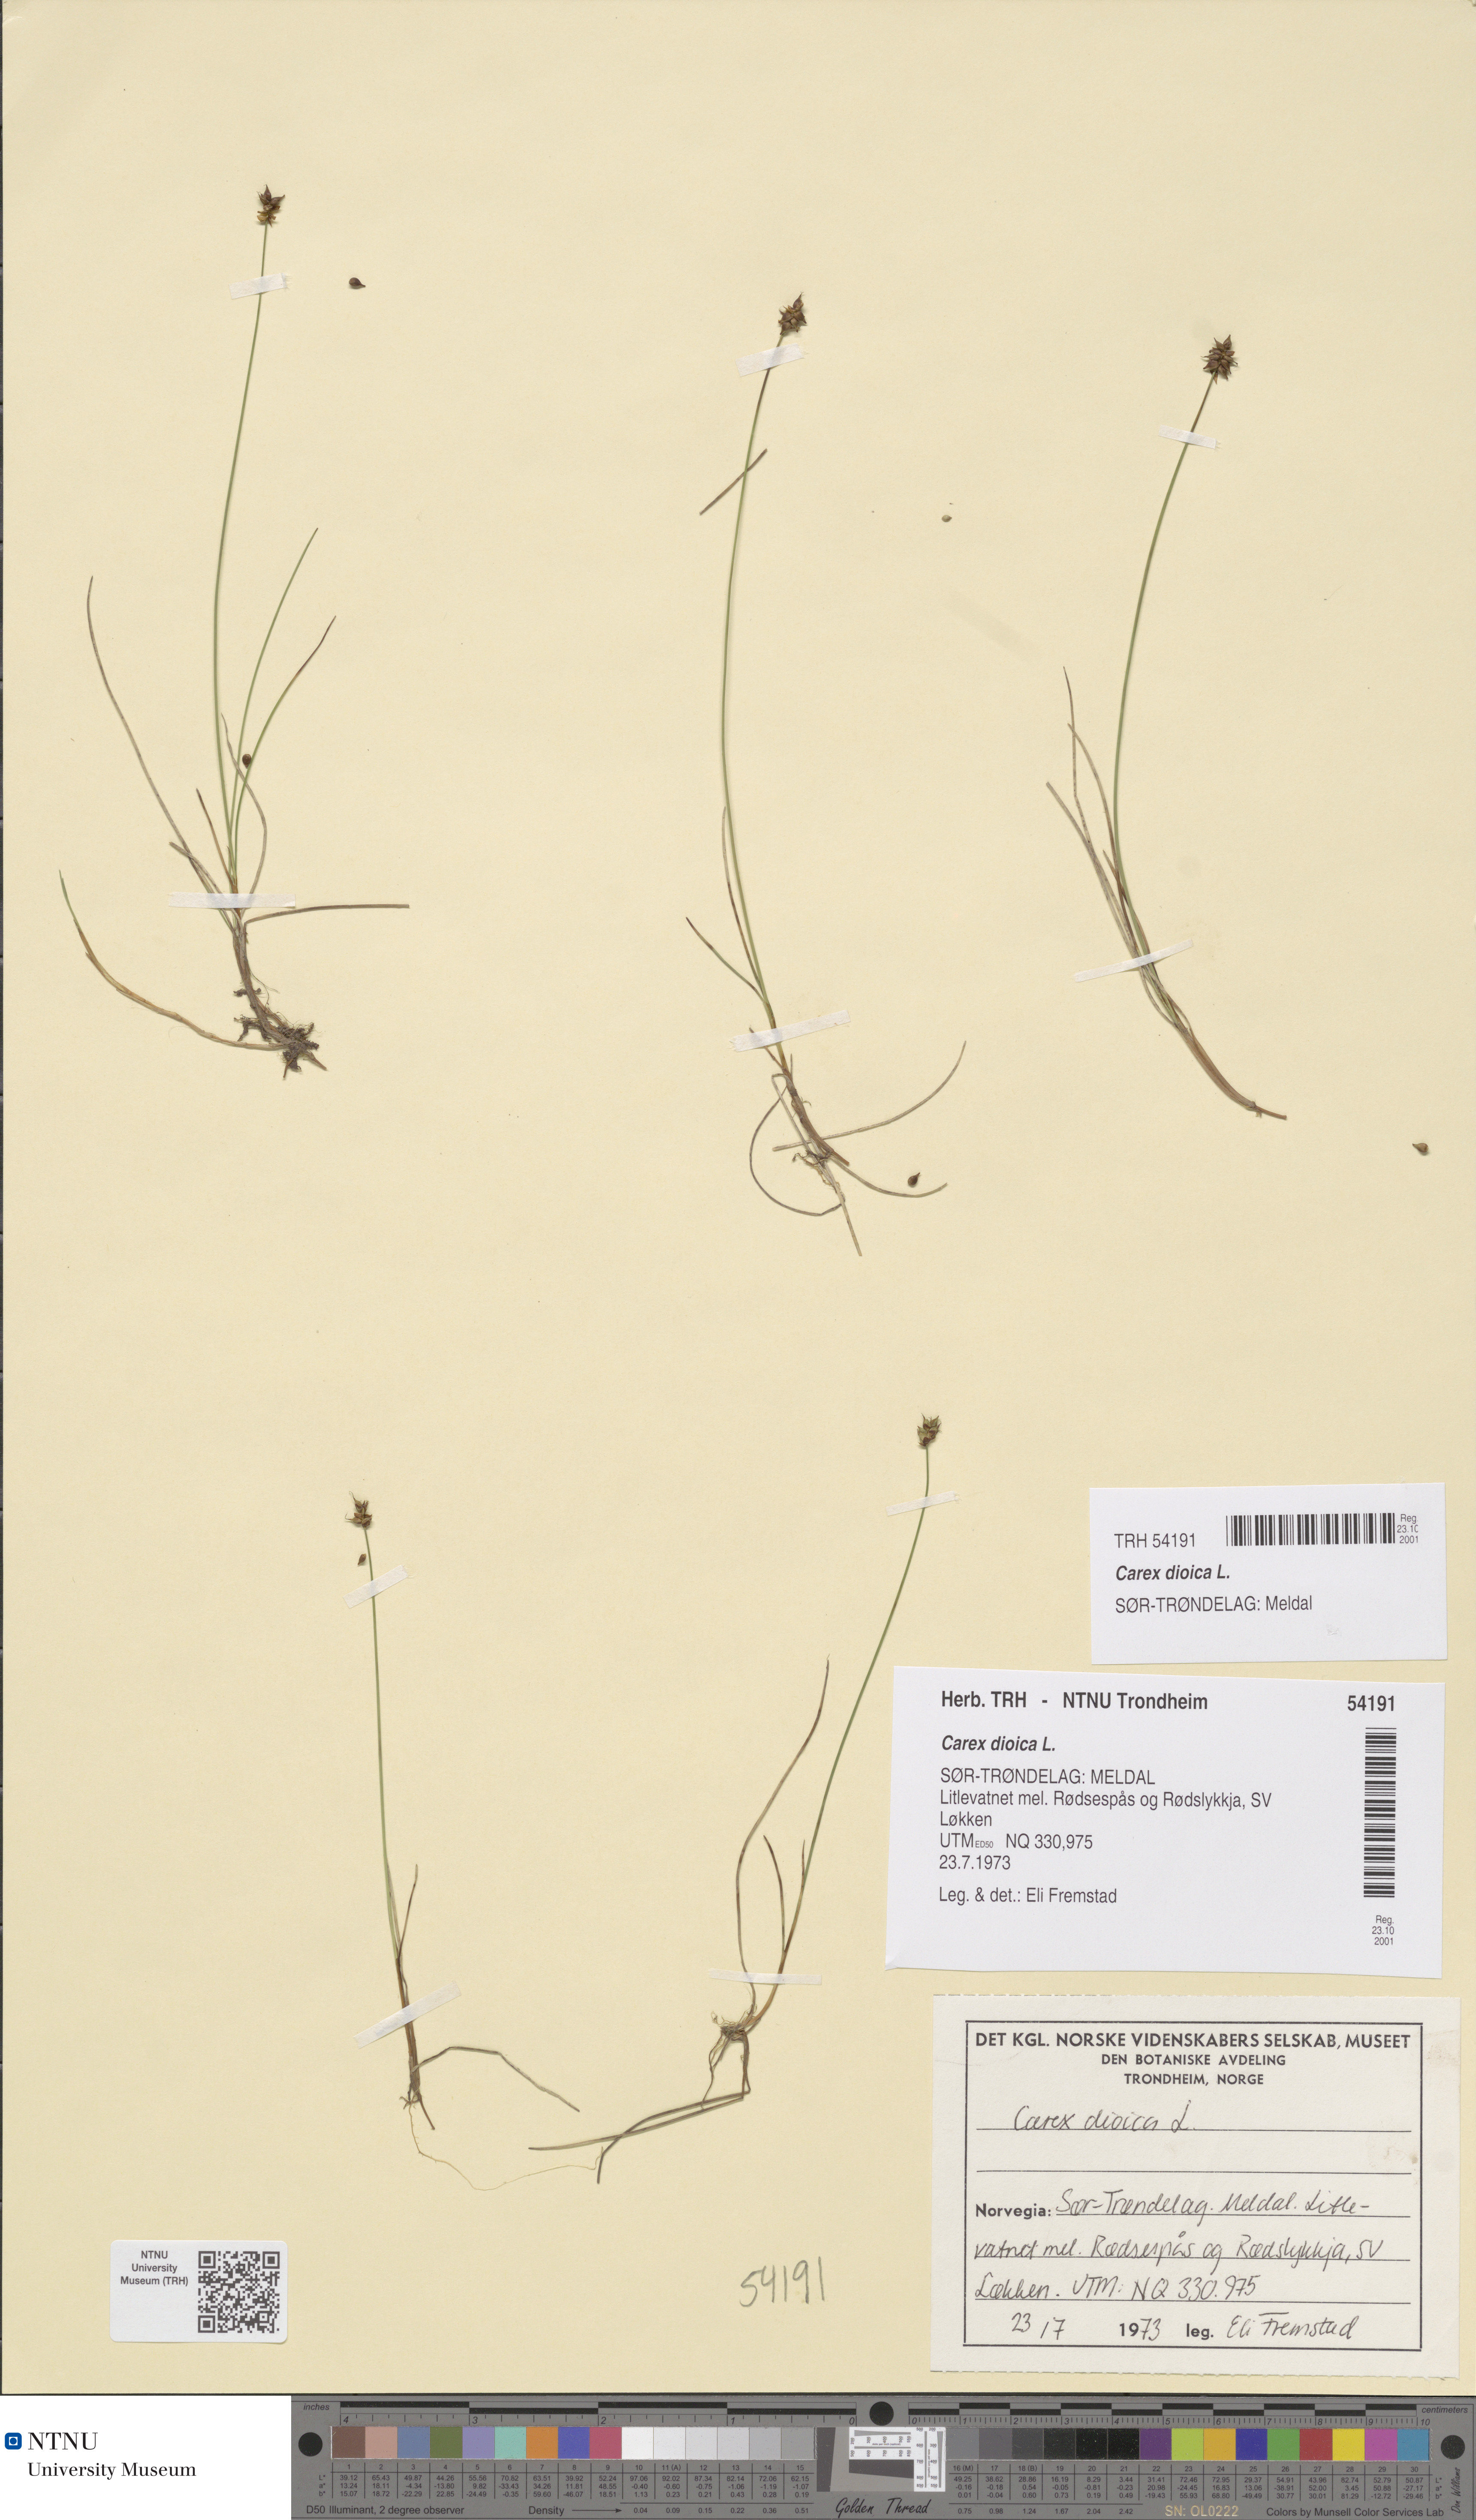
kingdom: Plantae
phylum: Tracheophyta
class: Liliopsida
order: Poales
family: Cyperaceae
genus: Carex
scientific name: Carex dioica
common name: Dioecious sedge
